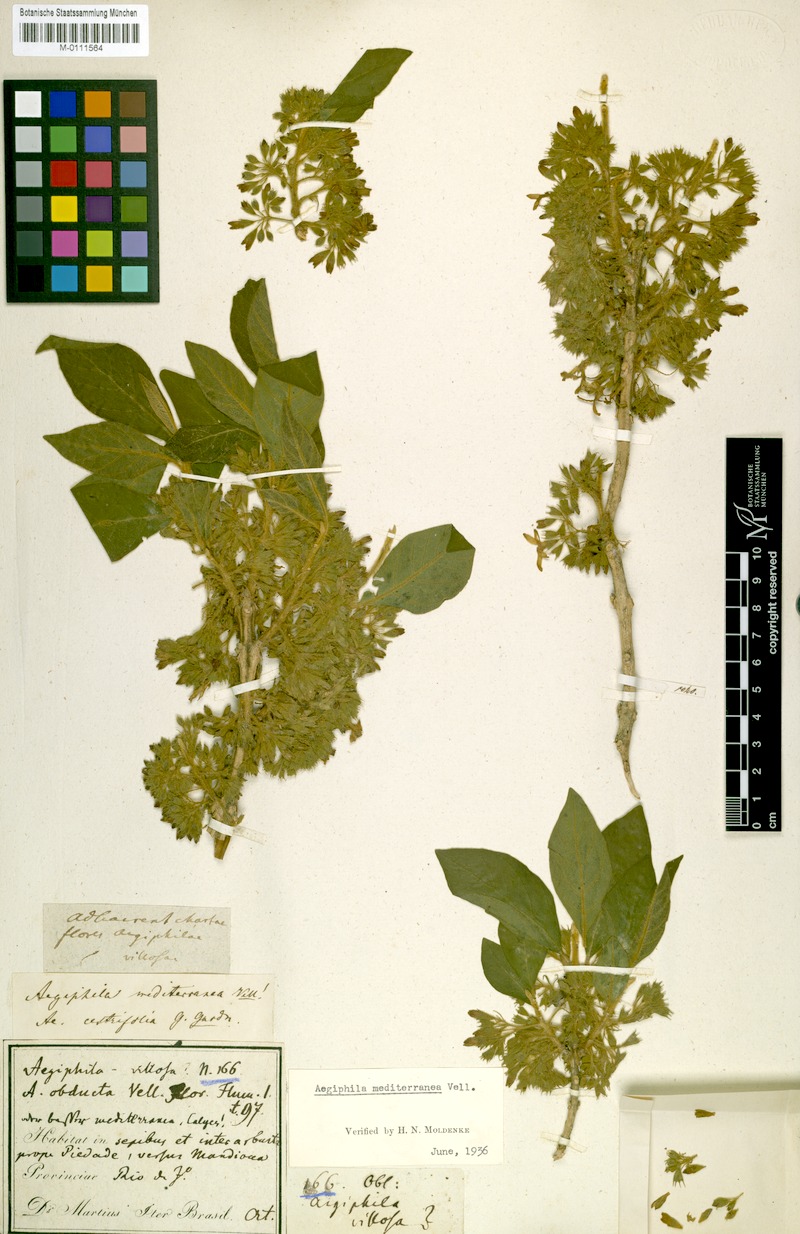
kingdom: Plantae
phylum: Tracheophyta
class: Magnoliopsida
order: Lamiales
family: Lamiaceae
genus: Aegiphila
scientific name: Aegiphila mediterranea
